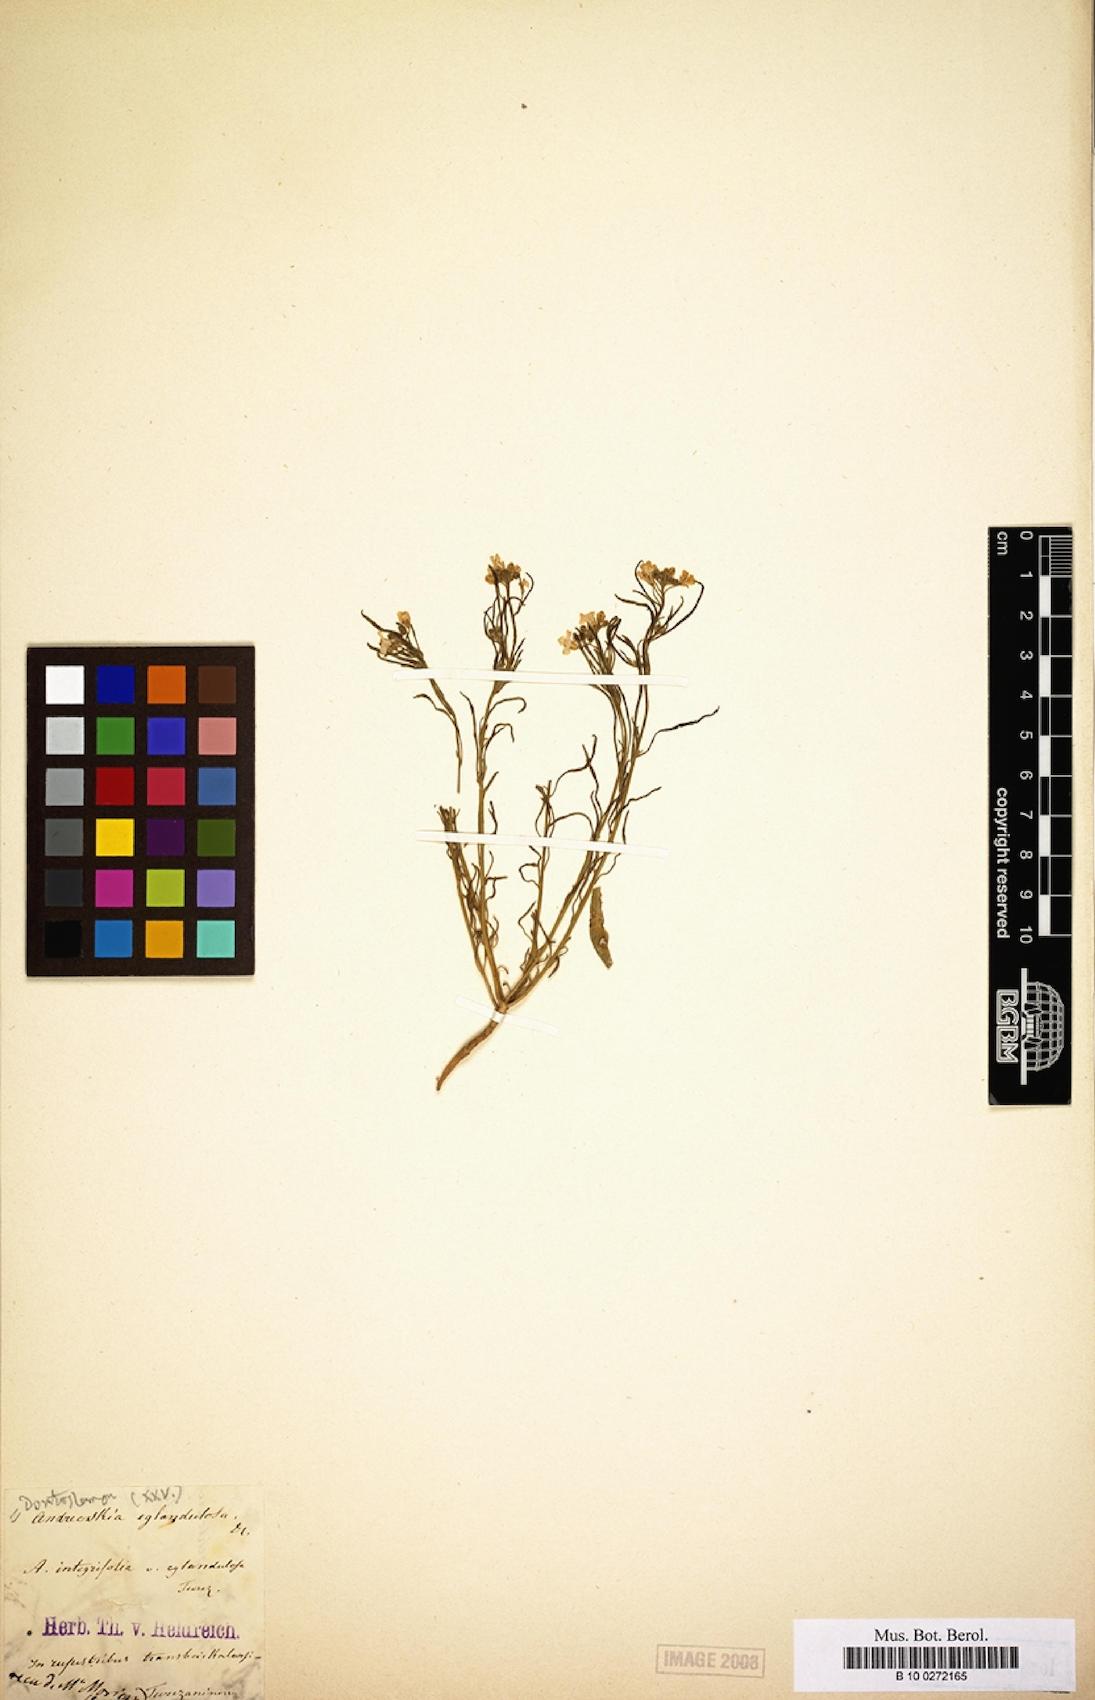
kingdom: Plantae
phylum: Tracheophyta
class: Magnoliopsida
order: Brassicales
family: Brassicaceae
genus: Dontostemon
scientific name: Dontostemon integrifolius
